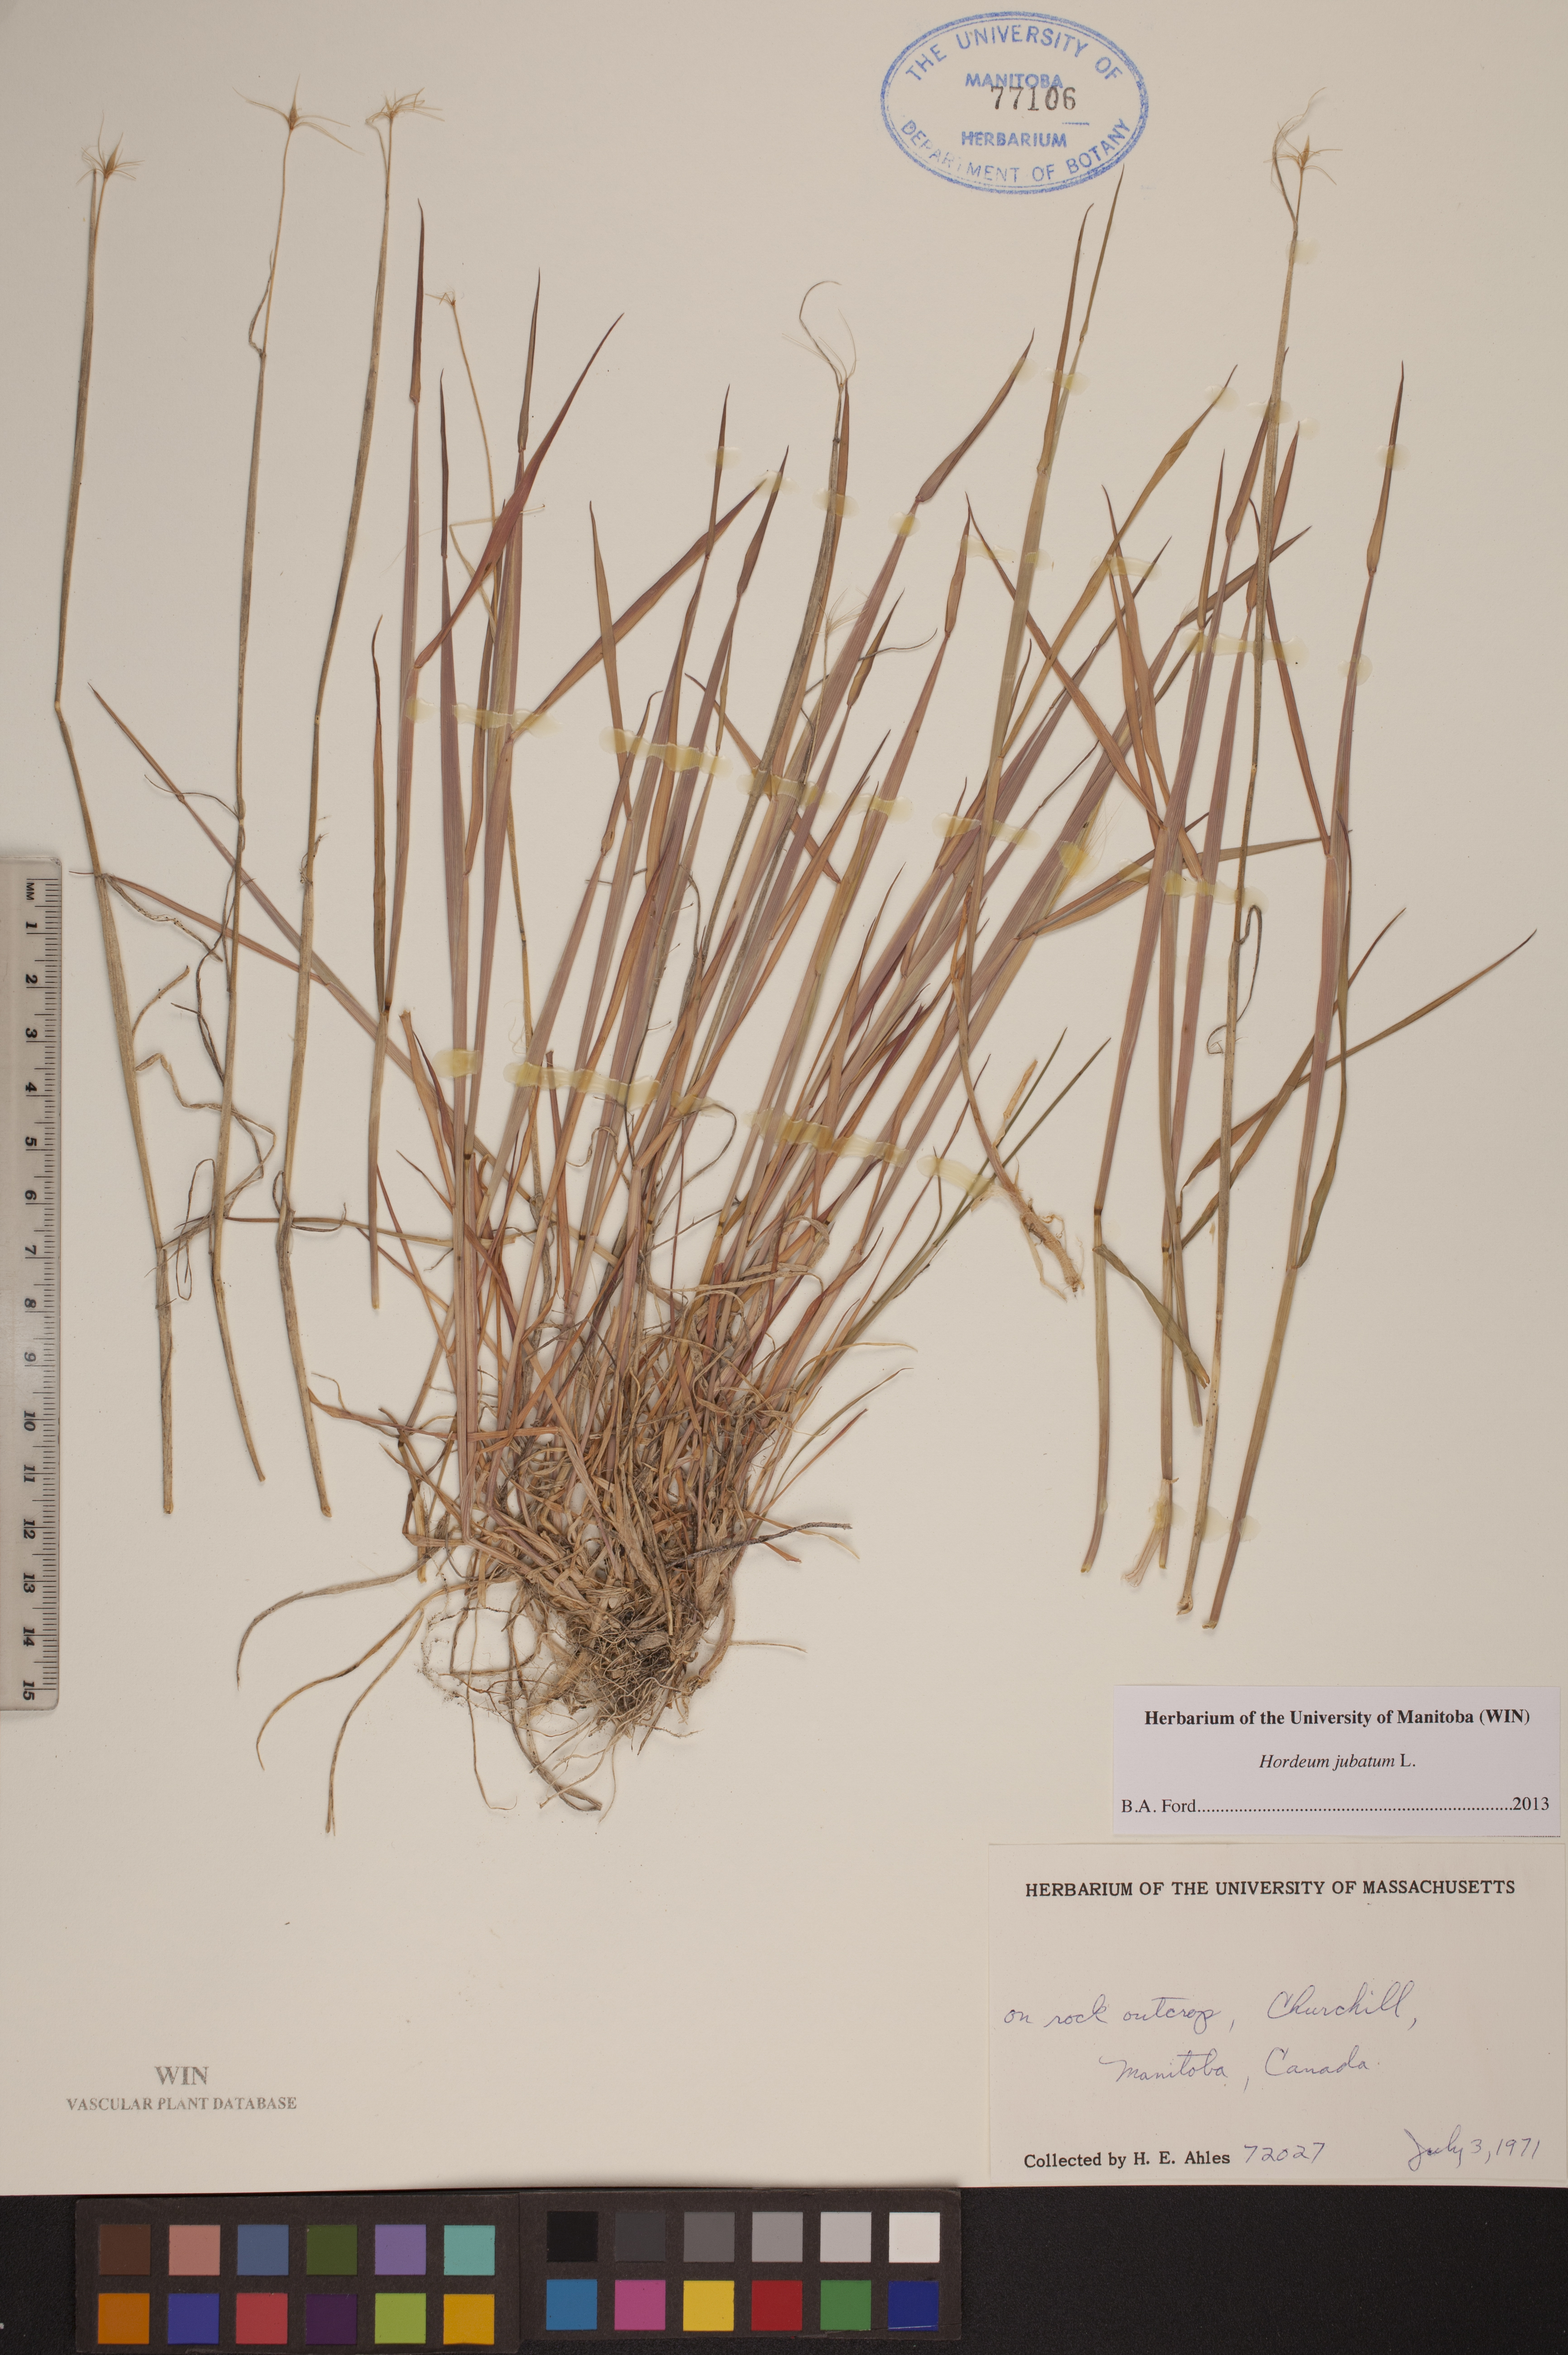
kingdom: Plantae
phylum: Tracheophyta
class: Liliopsida
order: Poales
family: Poaceae
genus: Hordeum
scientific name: Hordeum jubatum
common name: Foxtail barley
